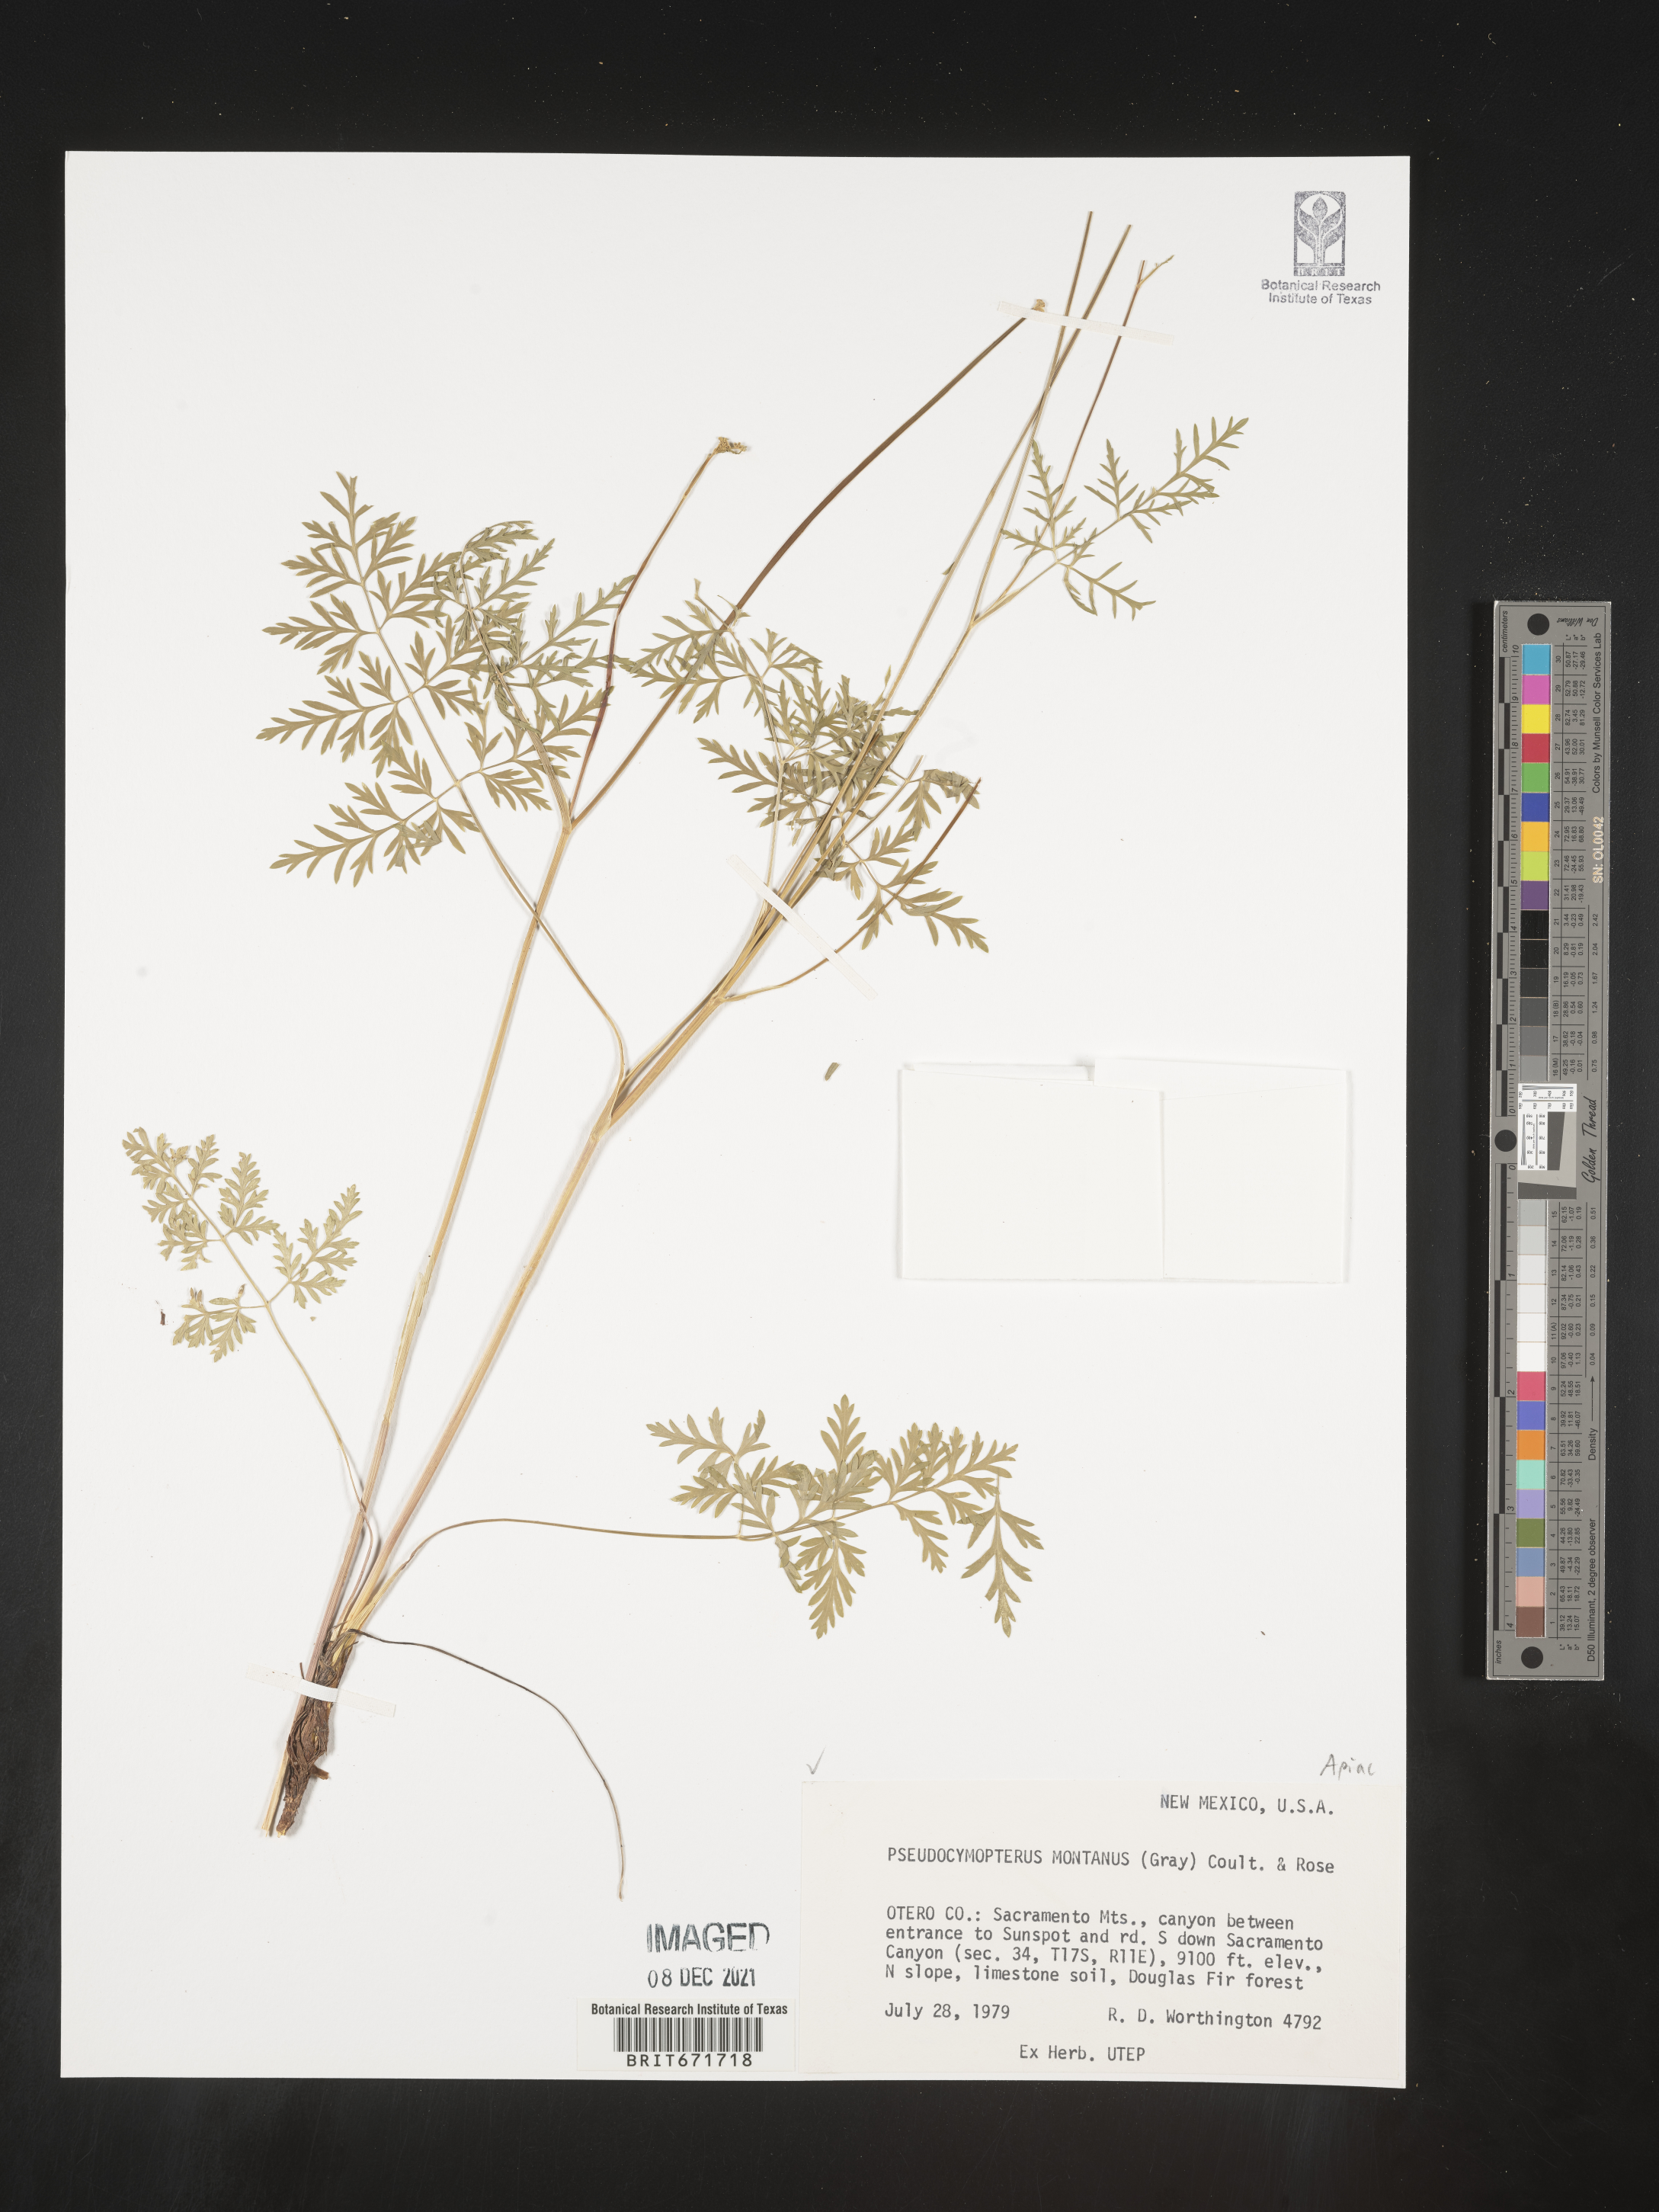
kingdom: Plantae
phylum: Tracheophyta
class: Magnoliopsida
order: Apiales
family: Apiaceae
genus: Cymopterus
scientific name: Cymopterus lemmonii
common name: Lemmon's spring-parsley
